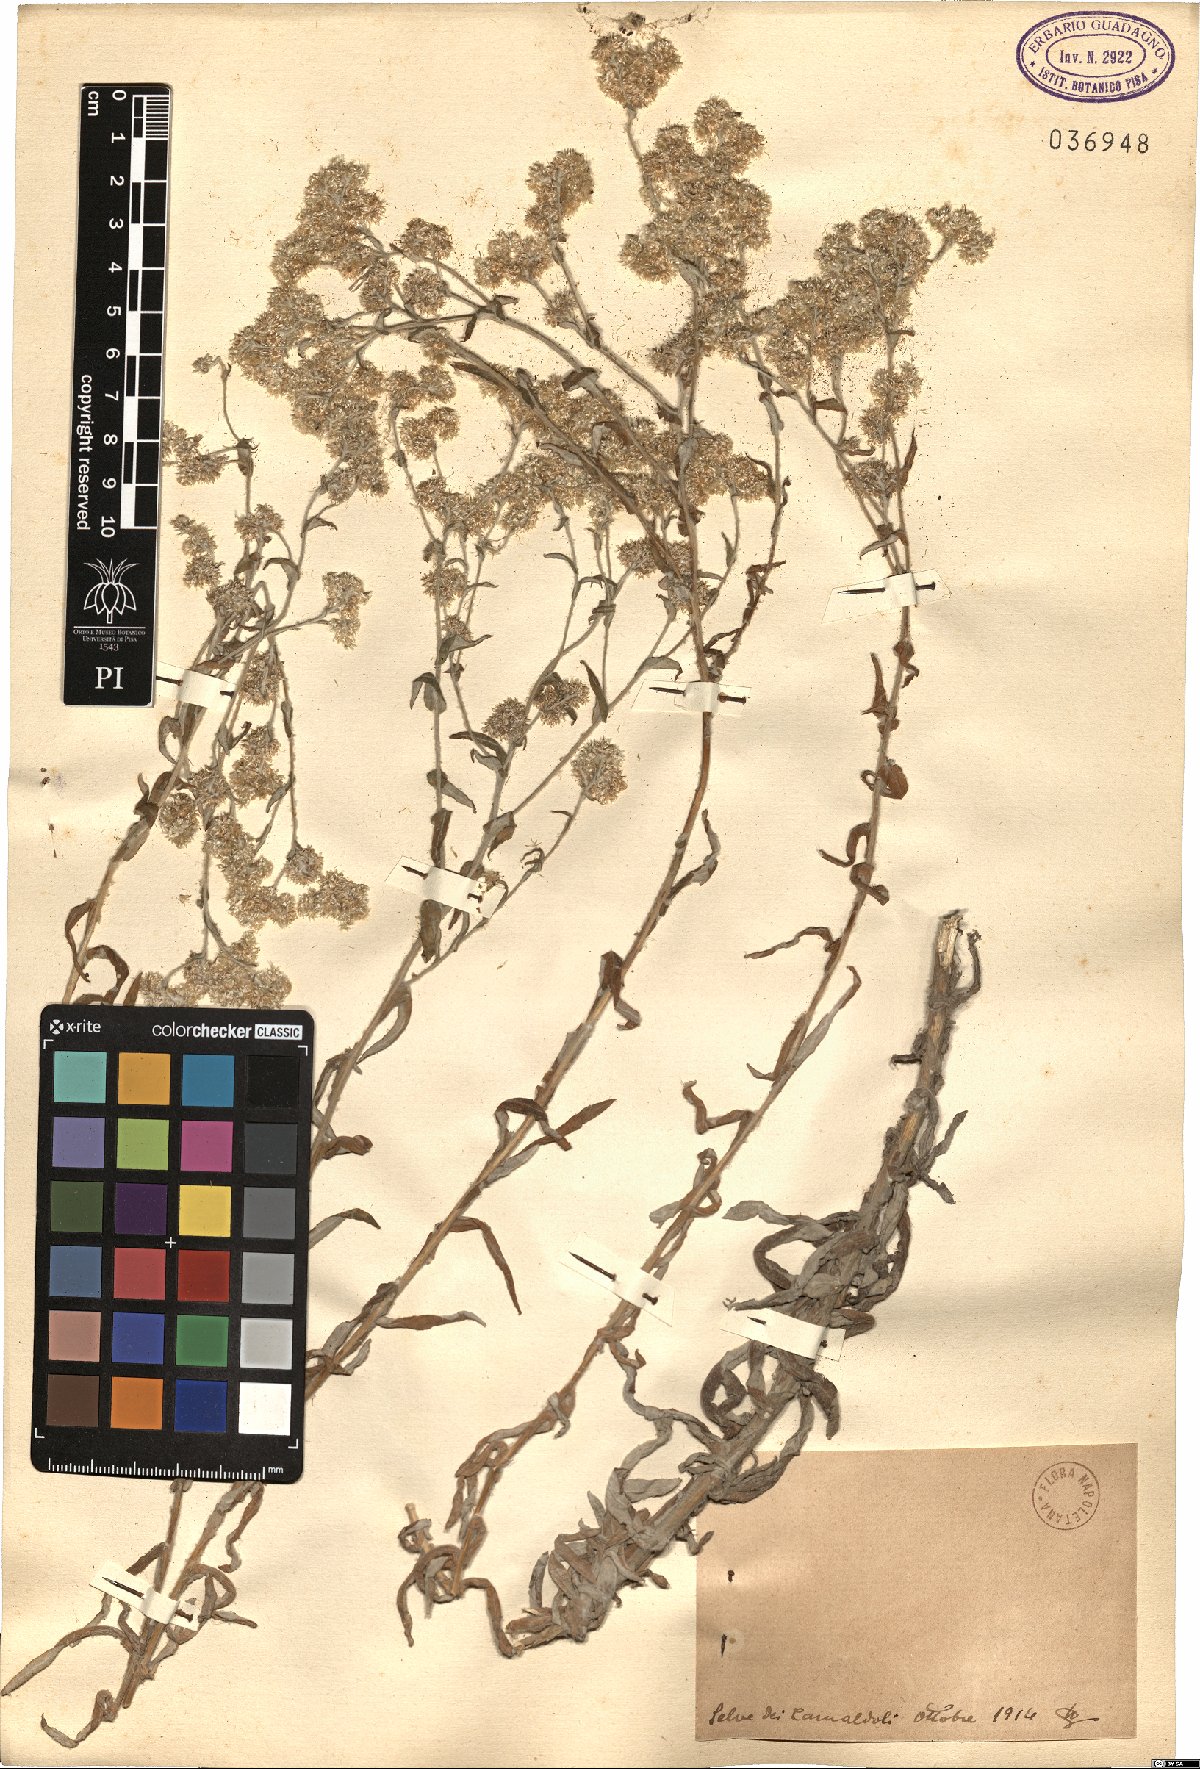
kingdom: Plantae
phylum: Tracheophyta
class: Magnoliopsida
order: Asterales
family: Asteraceae
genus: Gnaphalium
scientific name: Gnaphalium
